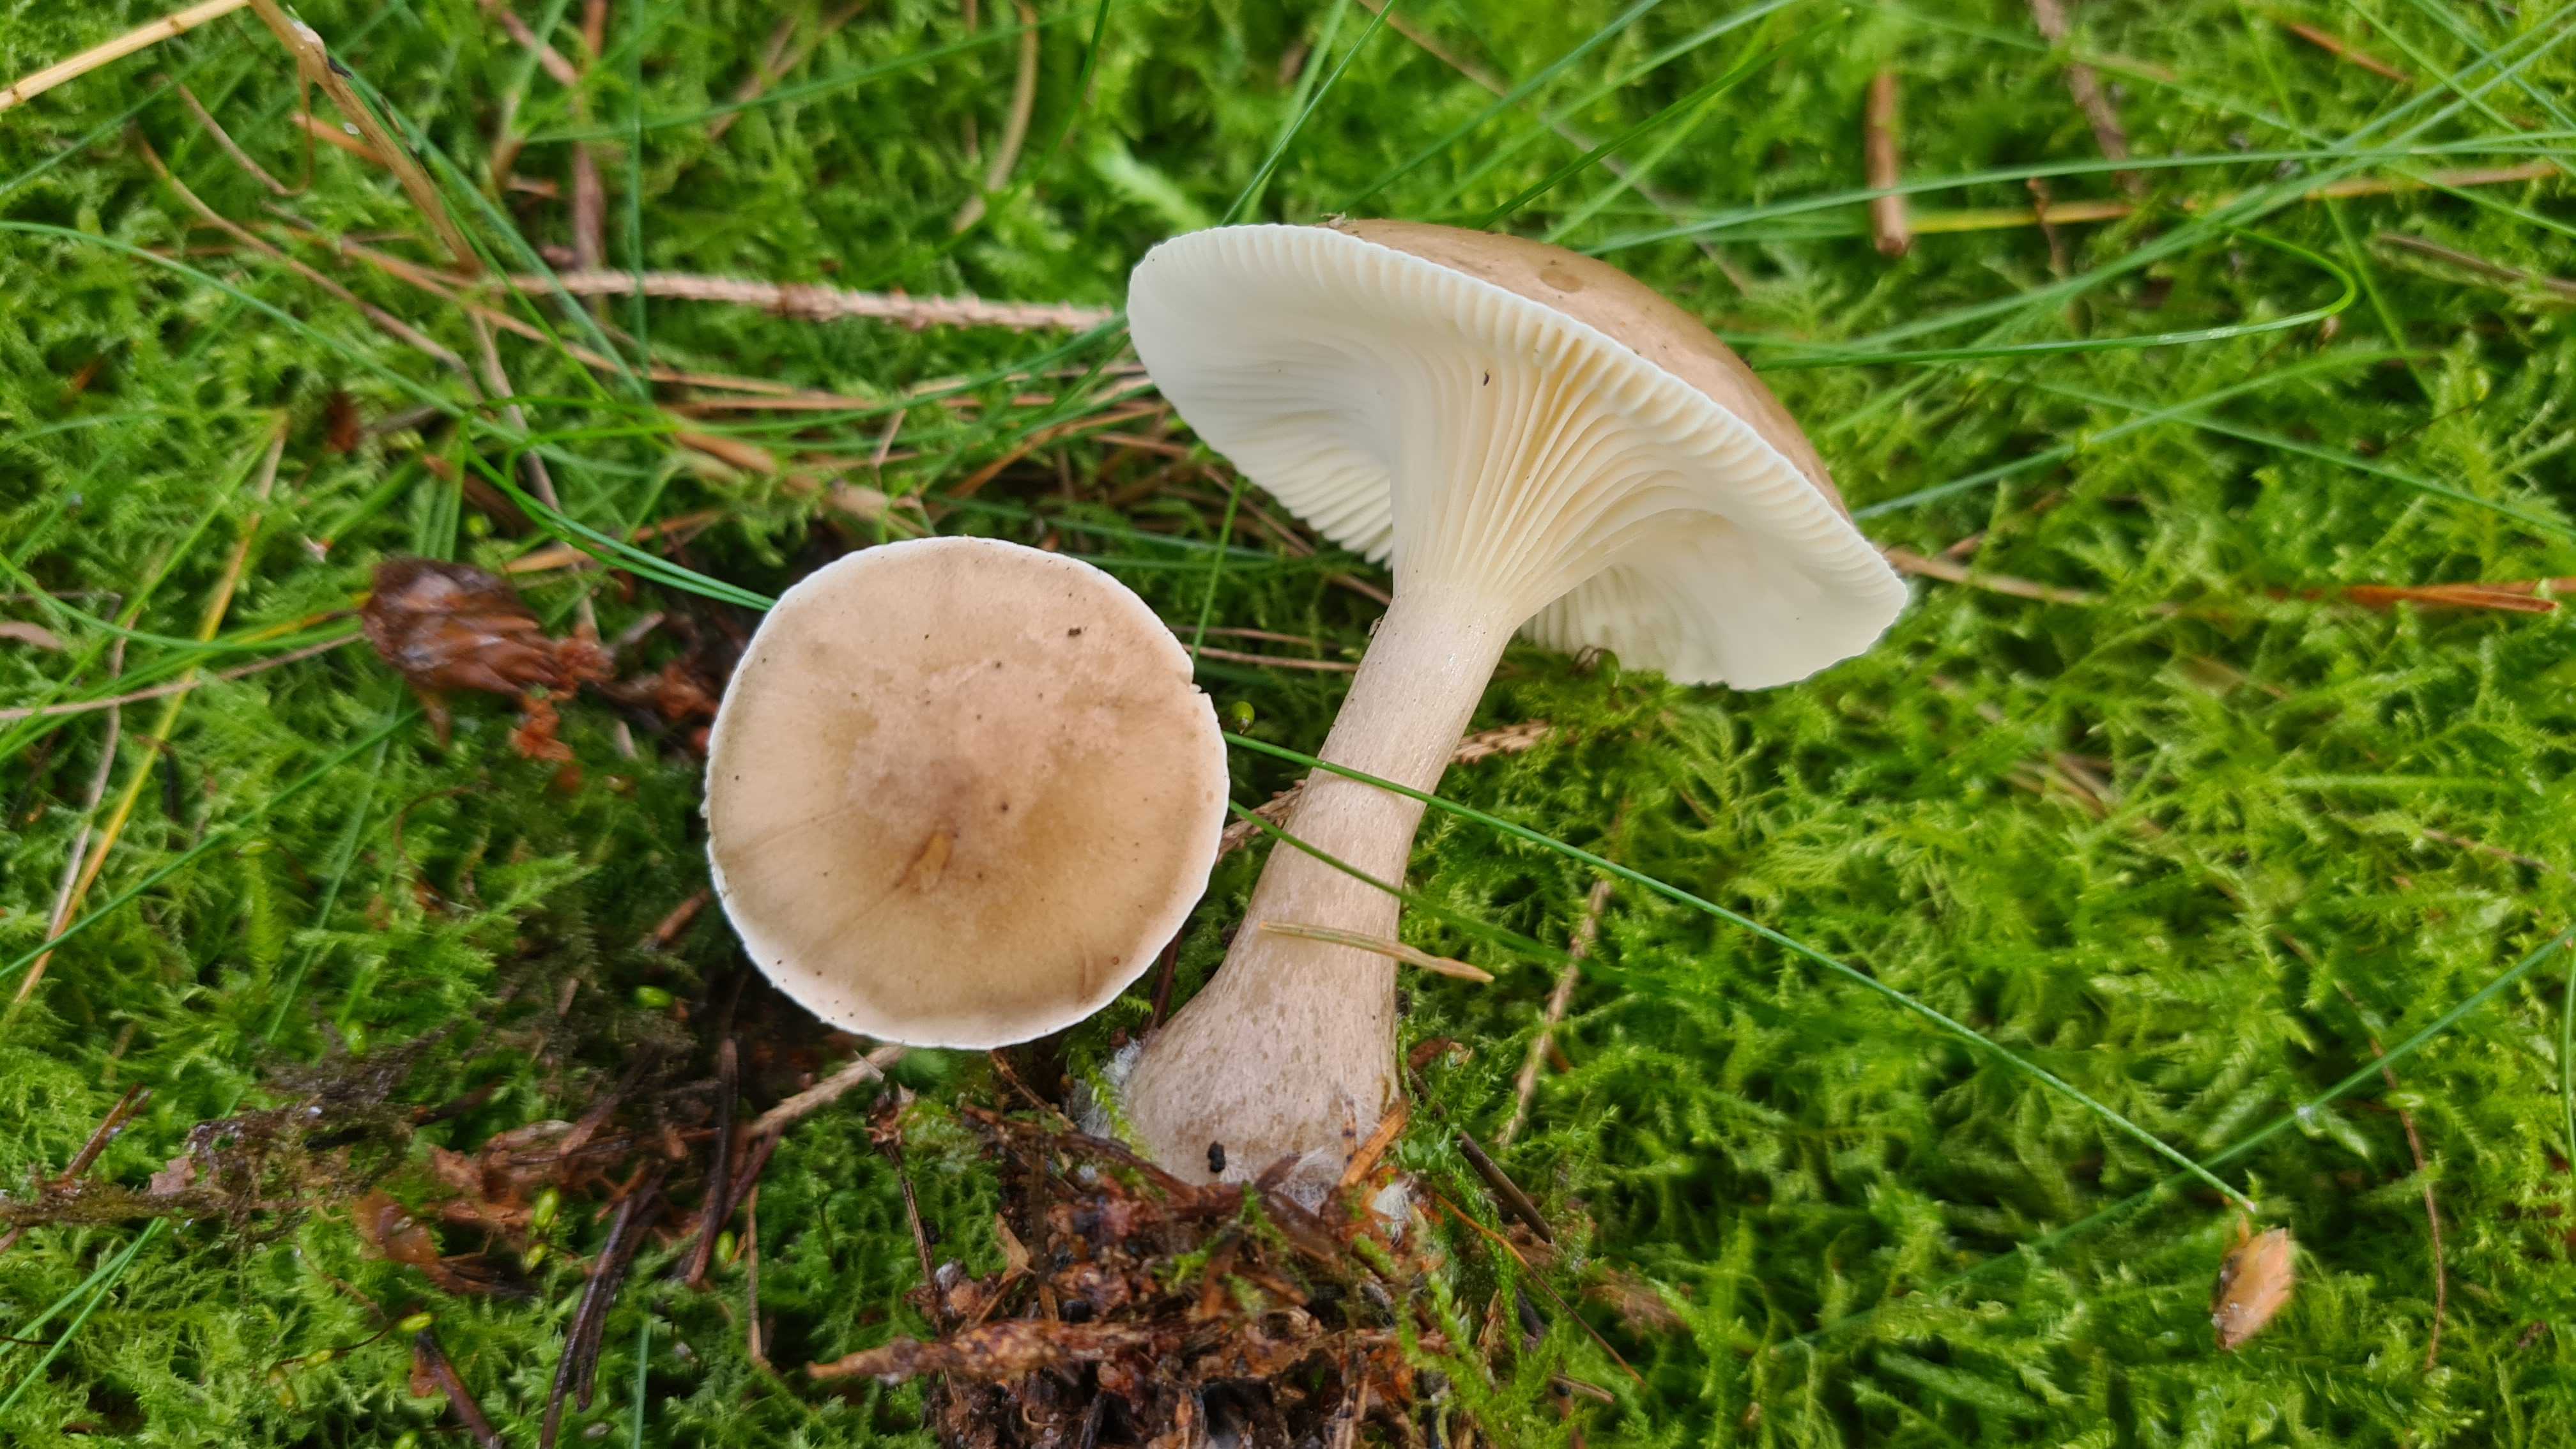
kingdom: Fungi
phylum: Basidiomycota
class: Agaricomycetes
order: Agaricales
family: Hygrophoraceae
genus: Ampulloclitocybe
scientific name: Ampulloclitocybe clavipes
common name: køllefod
